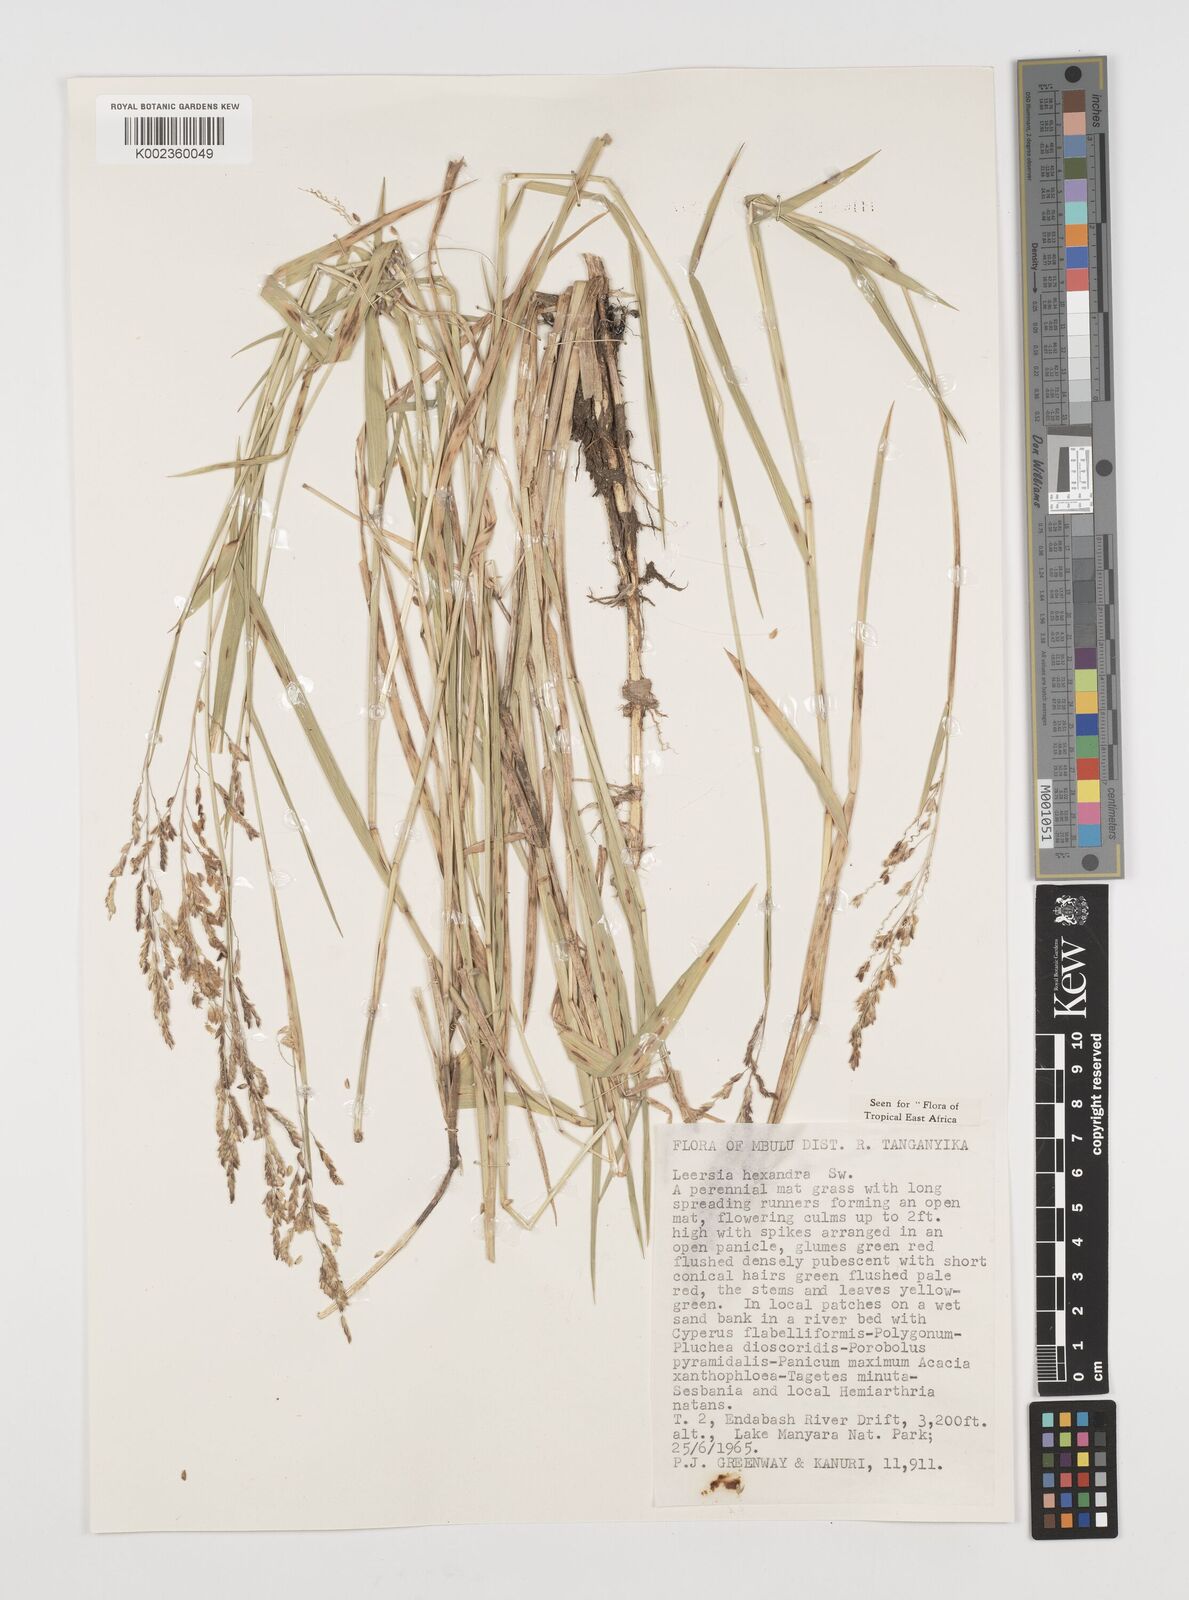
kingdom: Plantae
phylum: Tracheophyta
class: Liliopsida
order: Poales
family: Poaceae
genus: Leersia
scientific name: Leersia hexandra
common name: Southern cut grass
